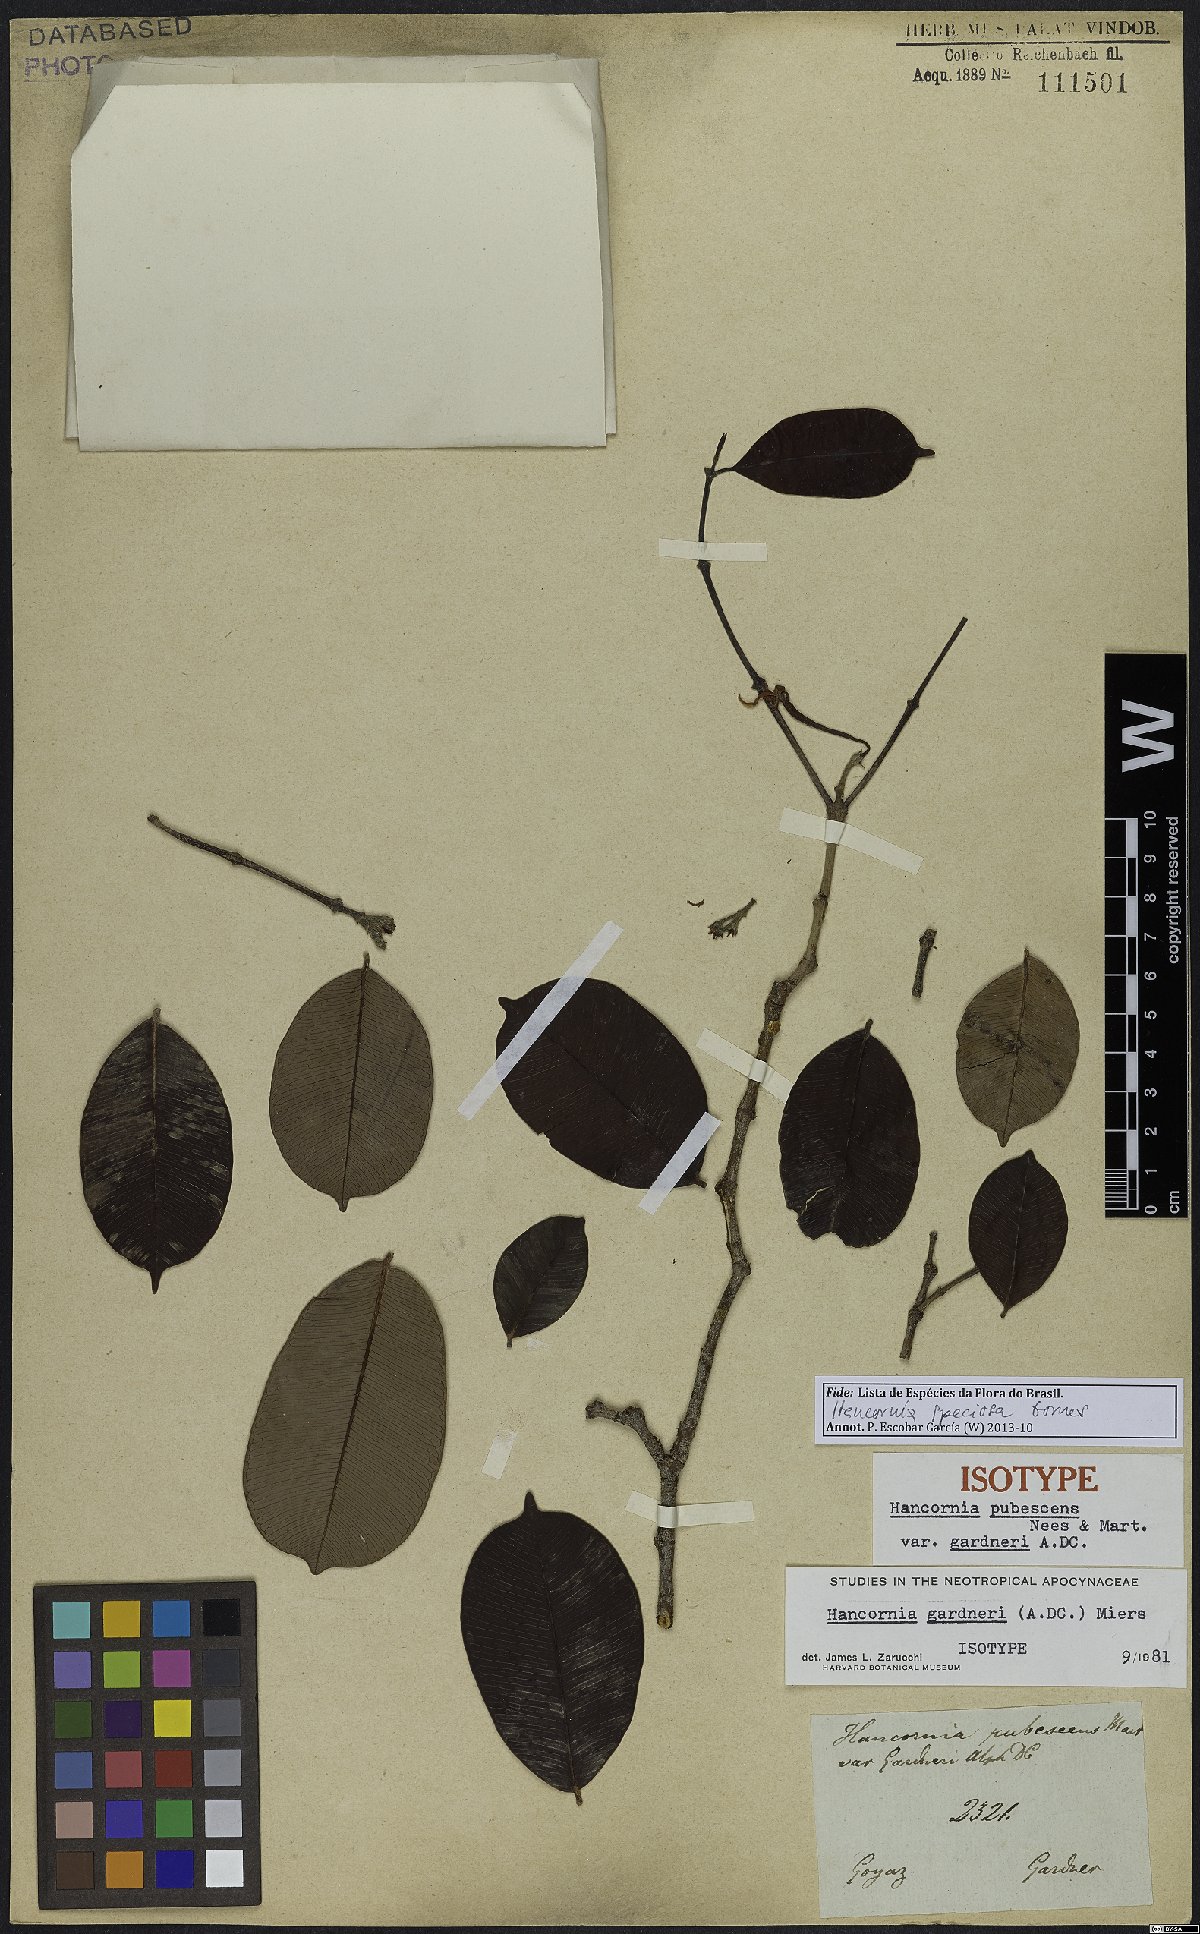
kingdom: Plantae
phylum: Tracheophyta
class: Magnoliopsida
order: Gentianales
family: Apocynaceae
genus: Hancornia
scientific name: Hancornia speciosa
